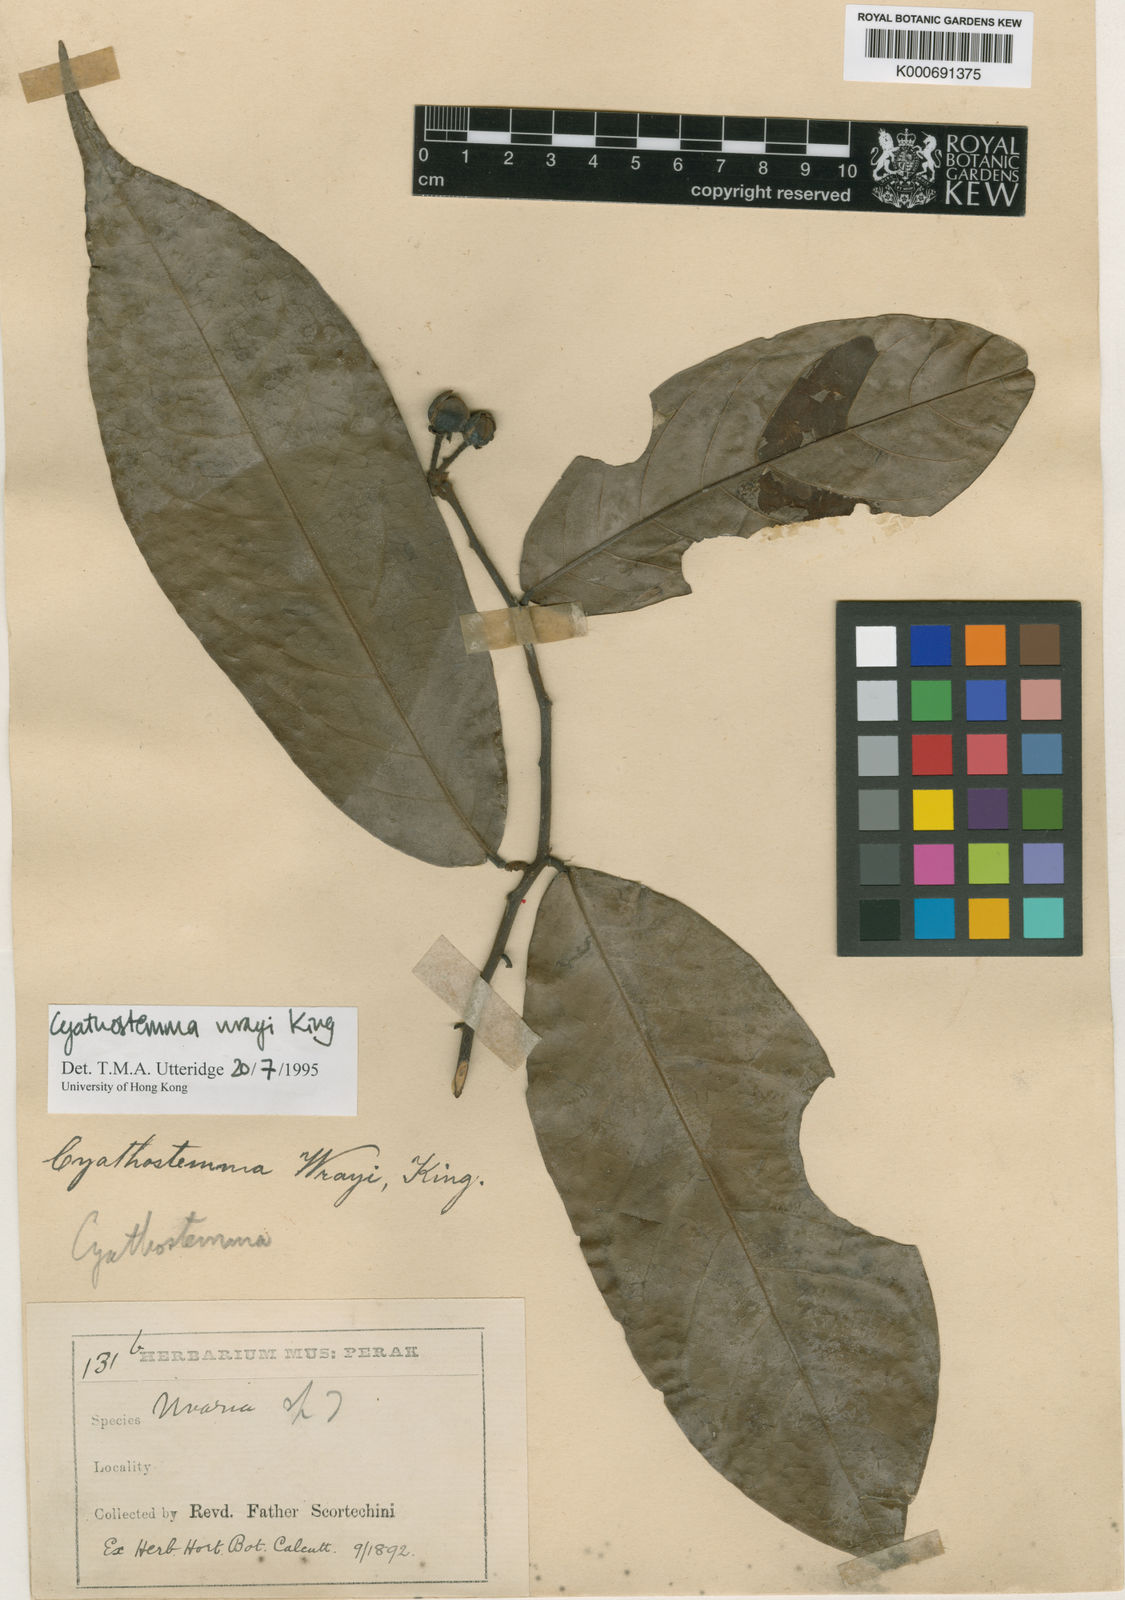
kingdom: Plantae
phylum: Tracheophyta
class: Magnoliopsida
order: Magnoliales
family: Annonaceae
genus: Uvaria
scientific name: Uvaria wrayi
